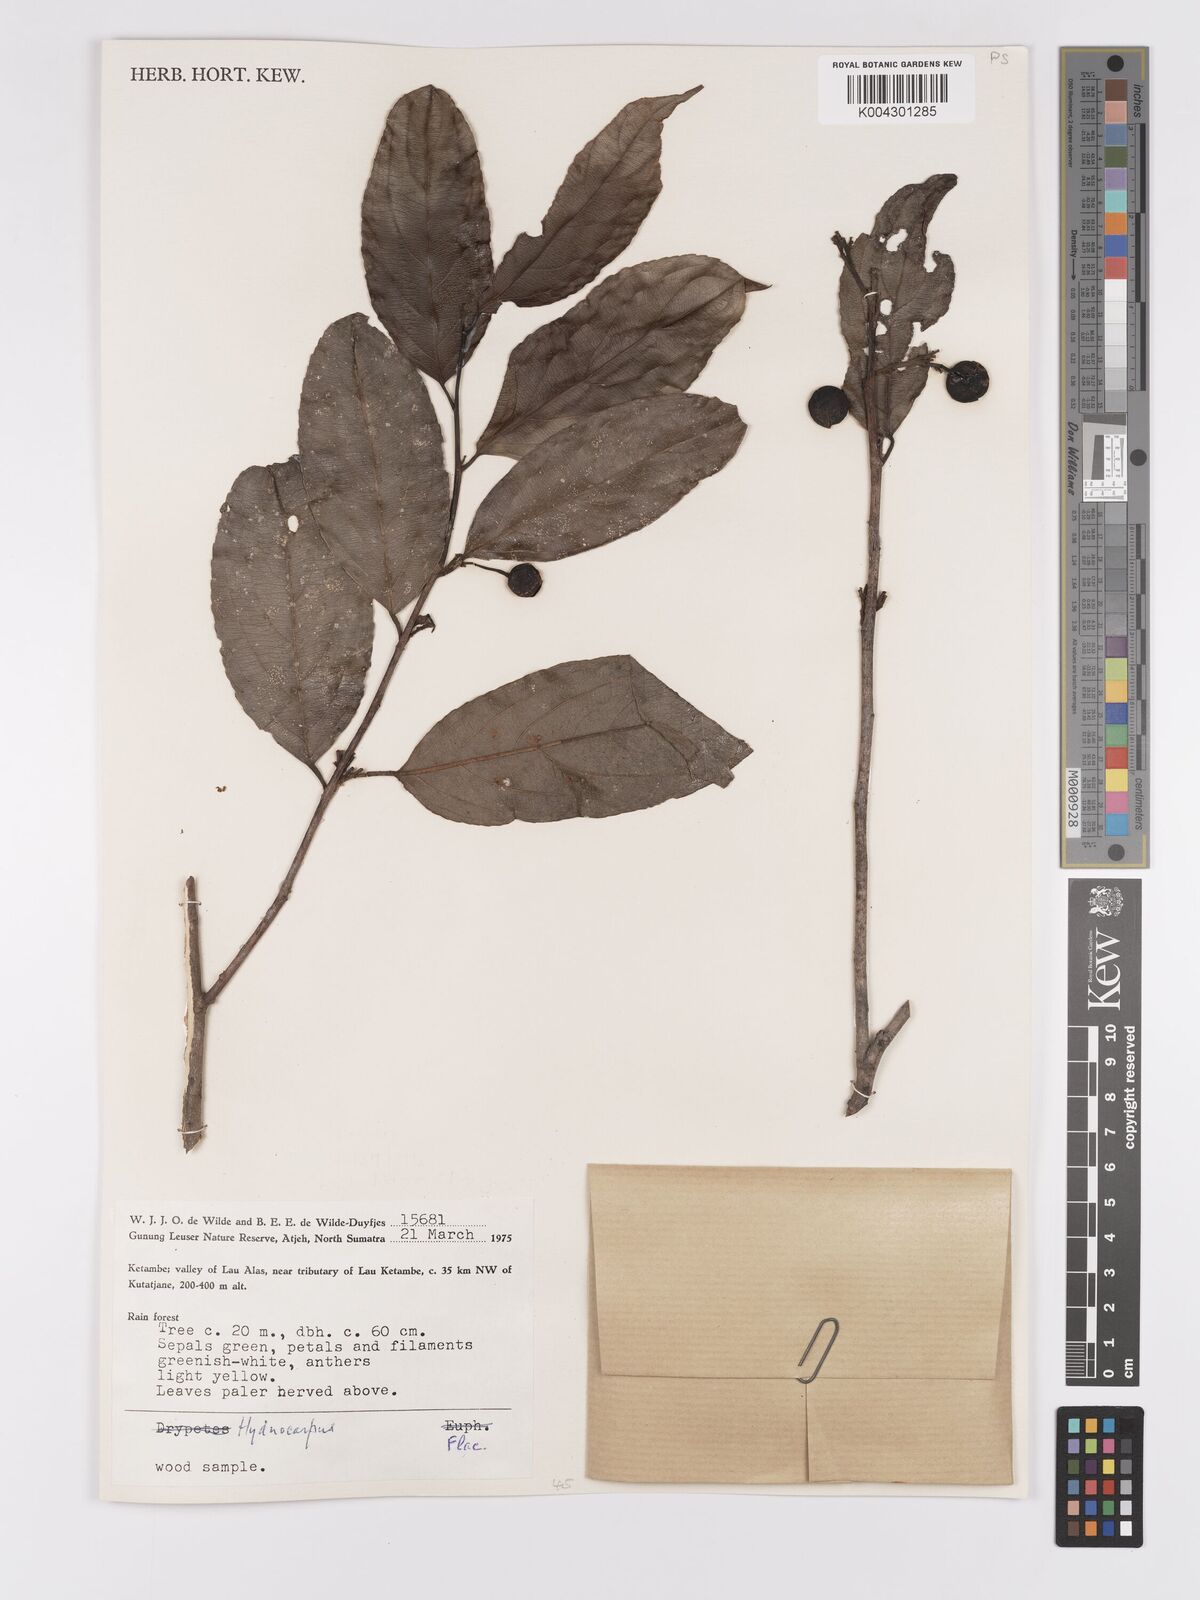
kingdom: Plantae
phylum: Tracheophyta
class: Magnoliopsida
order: Malpighiales
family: Achariaceae
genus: Hydnocarpus
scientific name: Hydnocarpus
